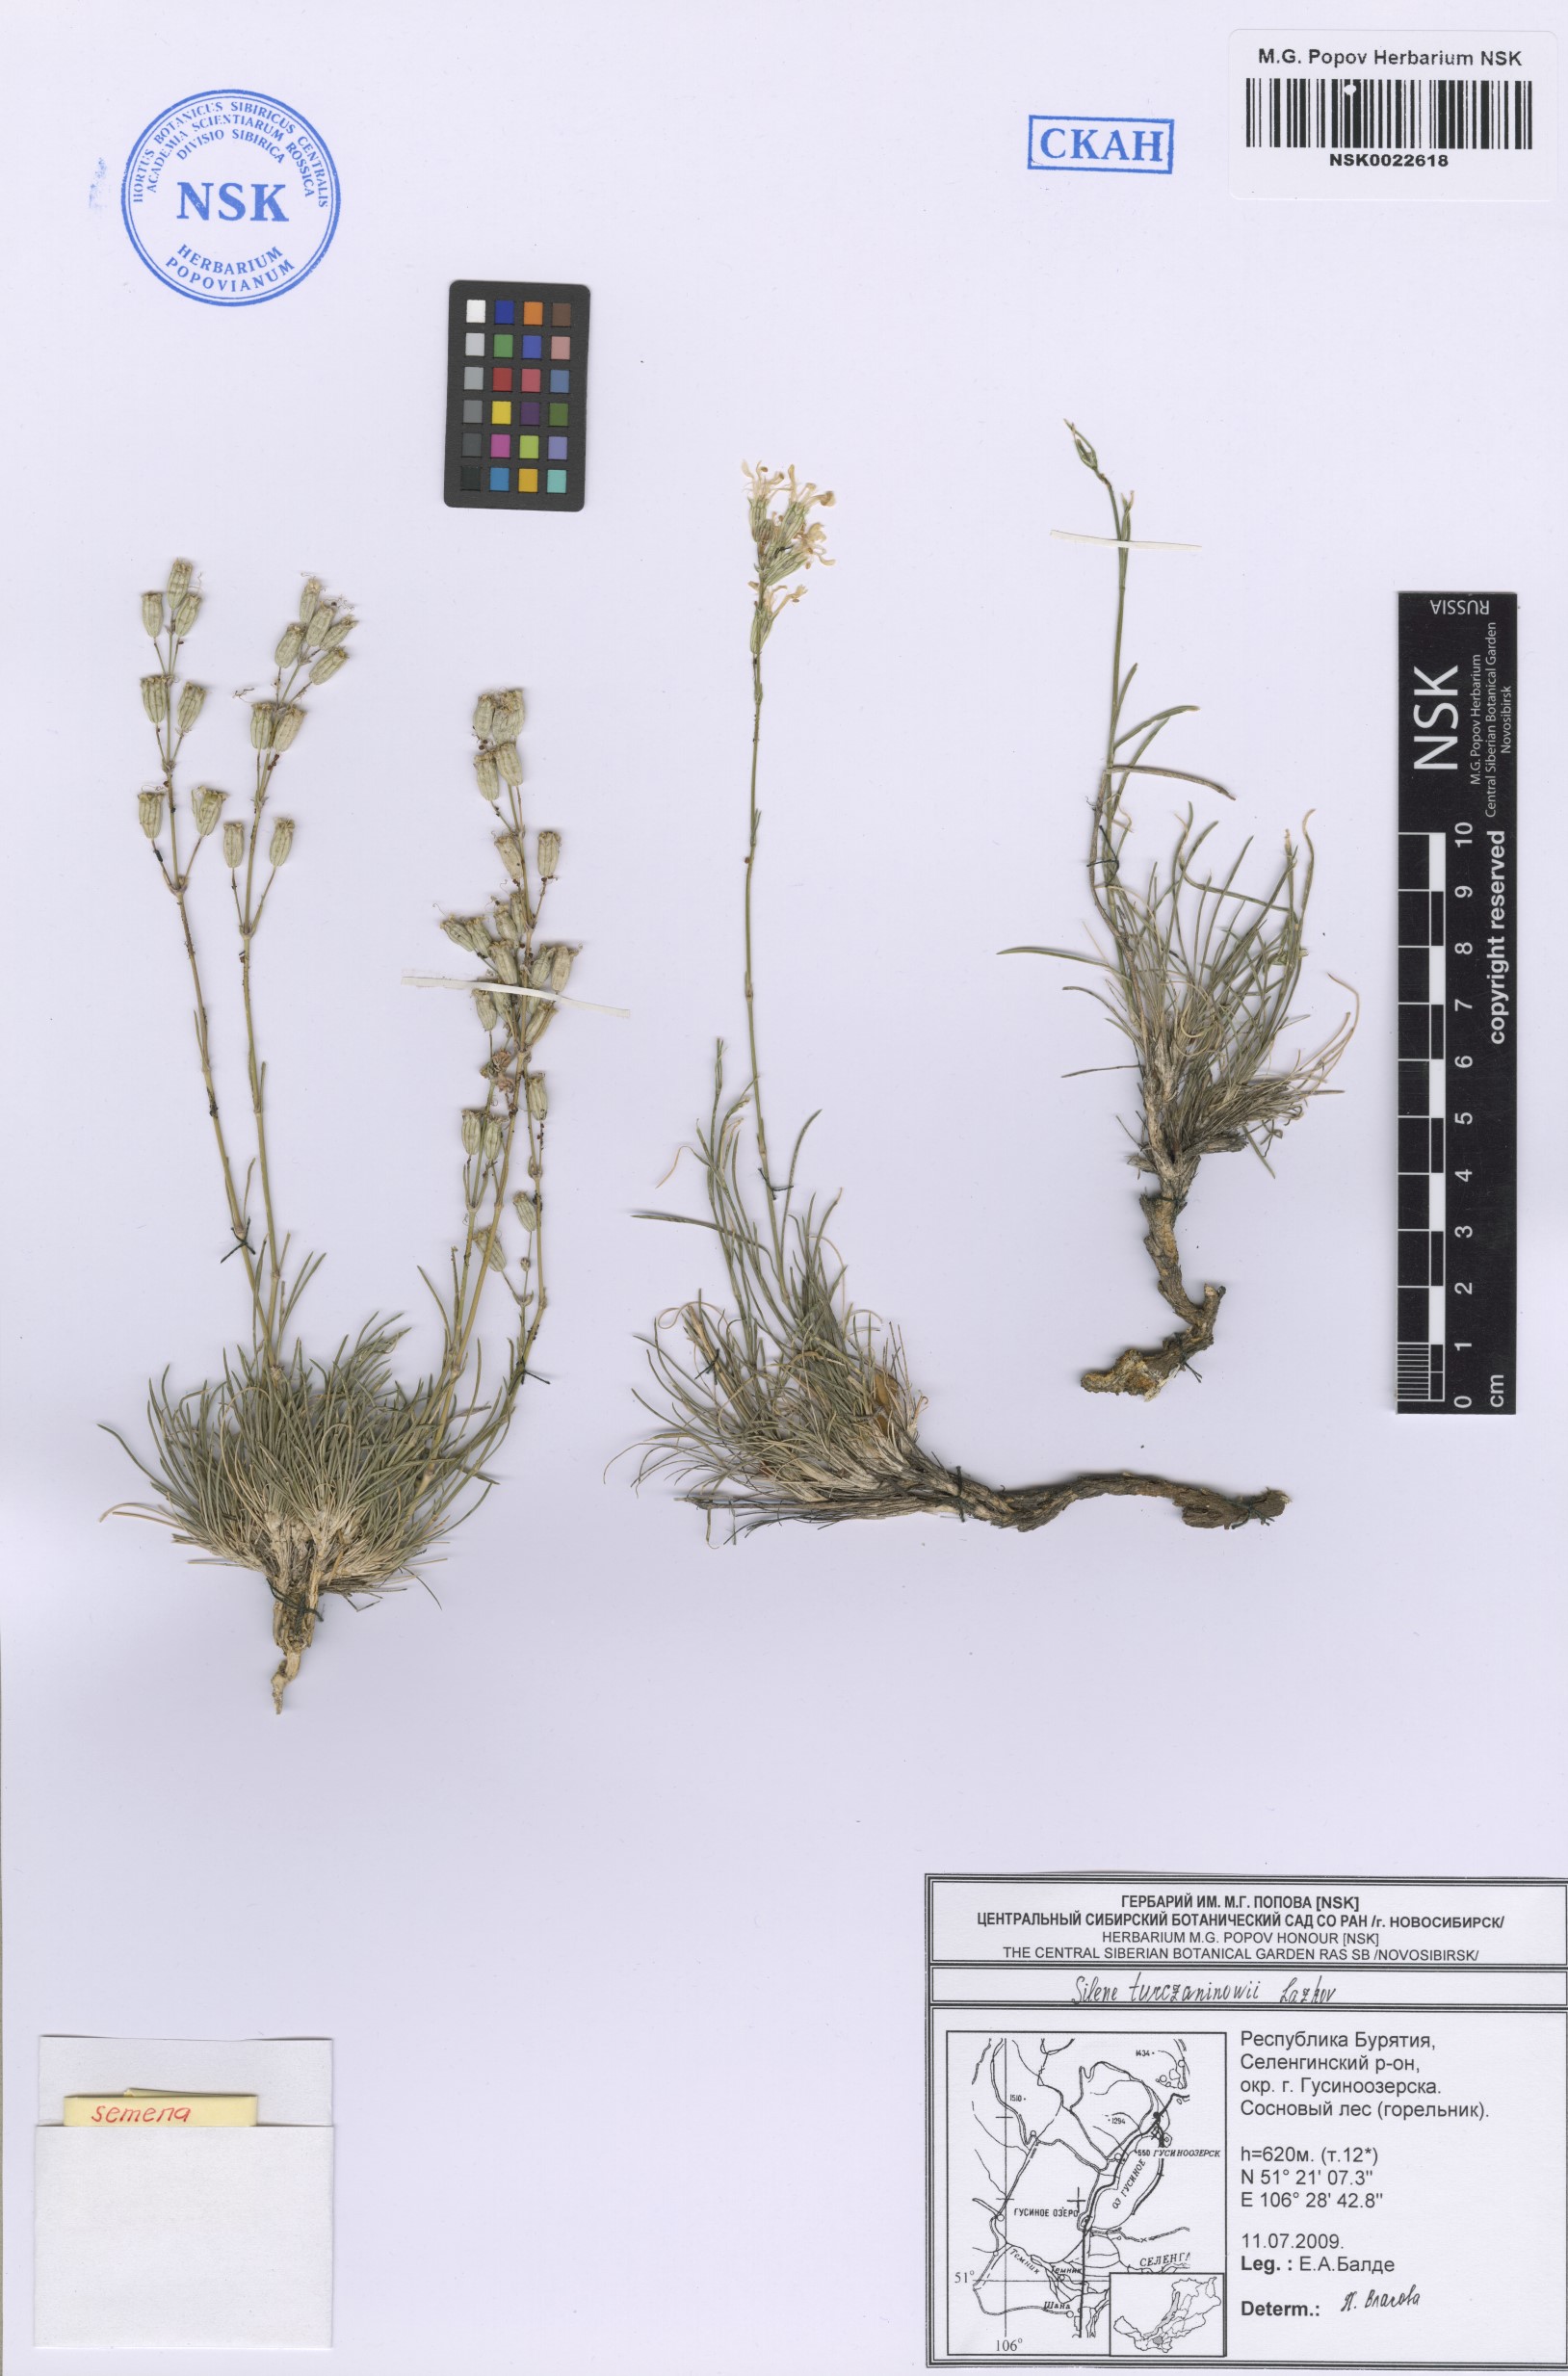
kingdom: Plantae
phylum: Tracheophyta
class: Magnoliopsida
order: Caryophyllales
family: Caryophyllaceae
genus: Silene
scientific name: Silene turczaninovii
